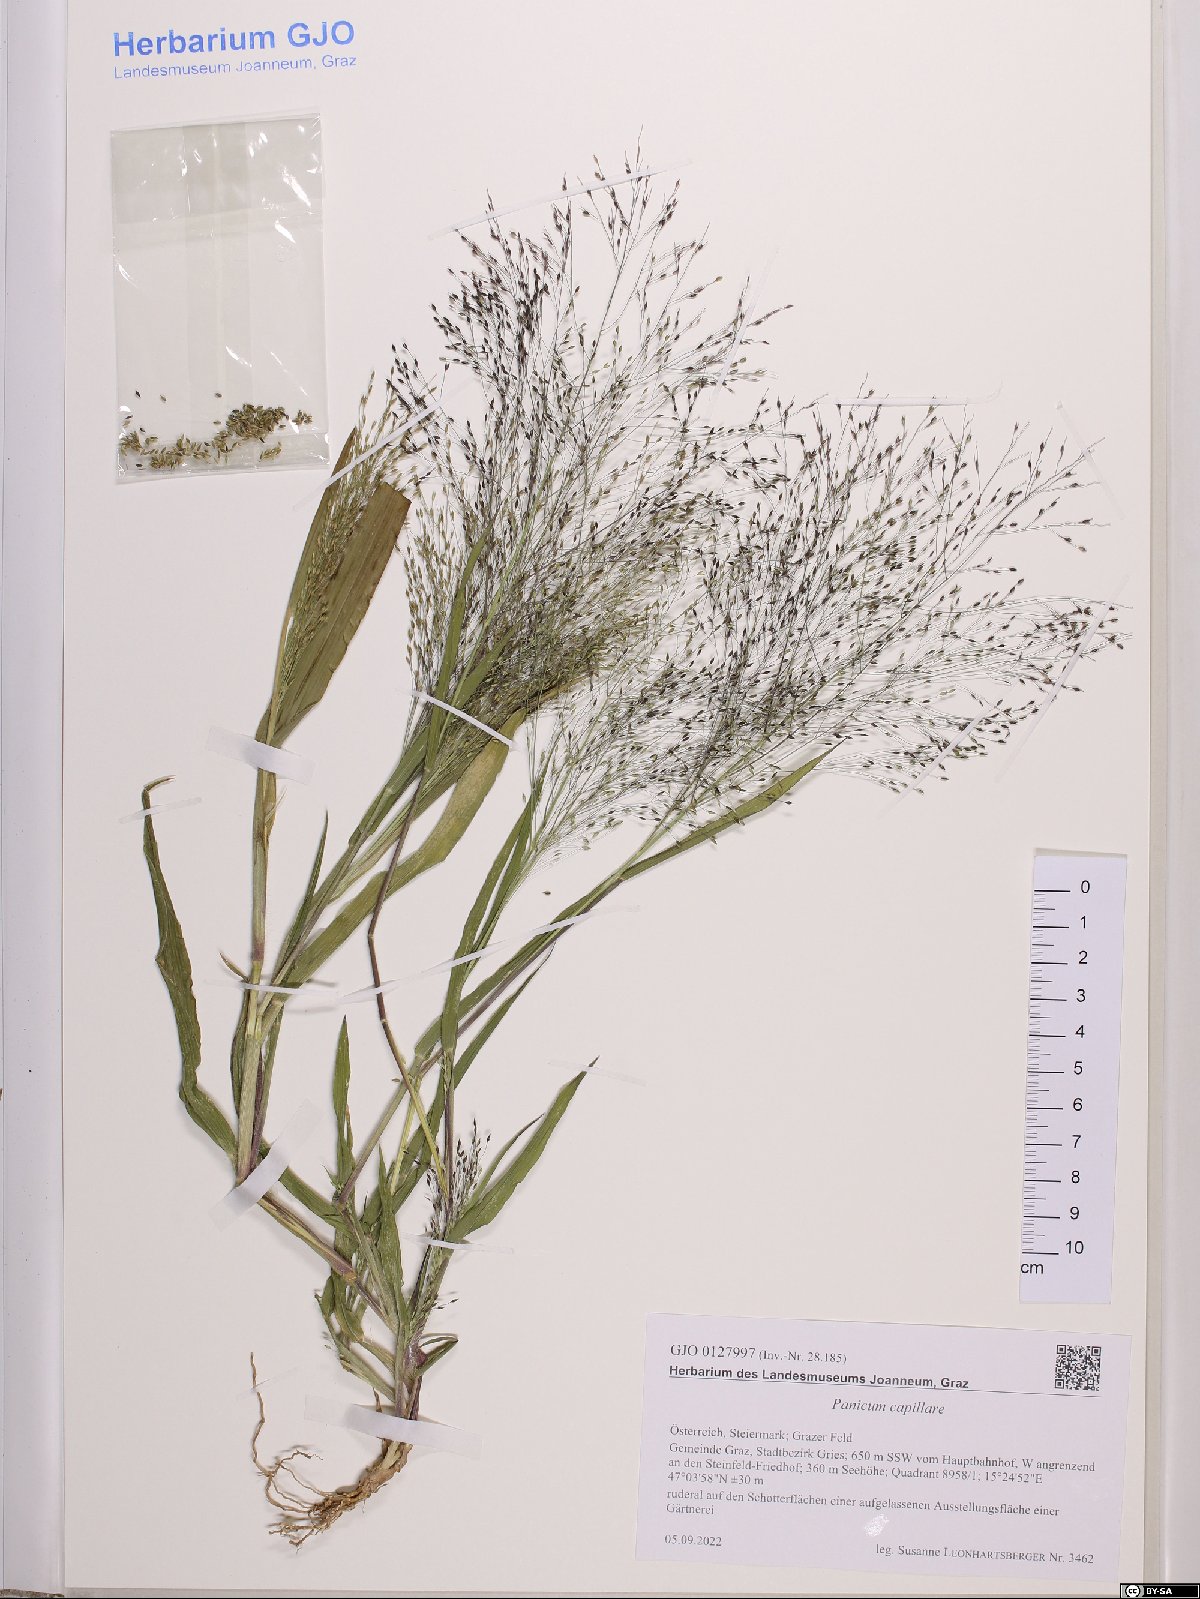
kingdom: Plantae
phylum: Tracheophyta
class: Liliopsida
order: Poales
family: Poaceae
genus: Panicum
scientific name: Panicum capillare
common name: Witch-grass
